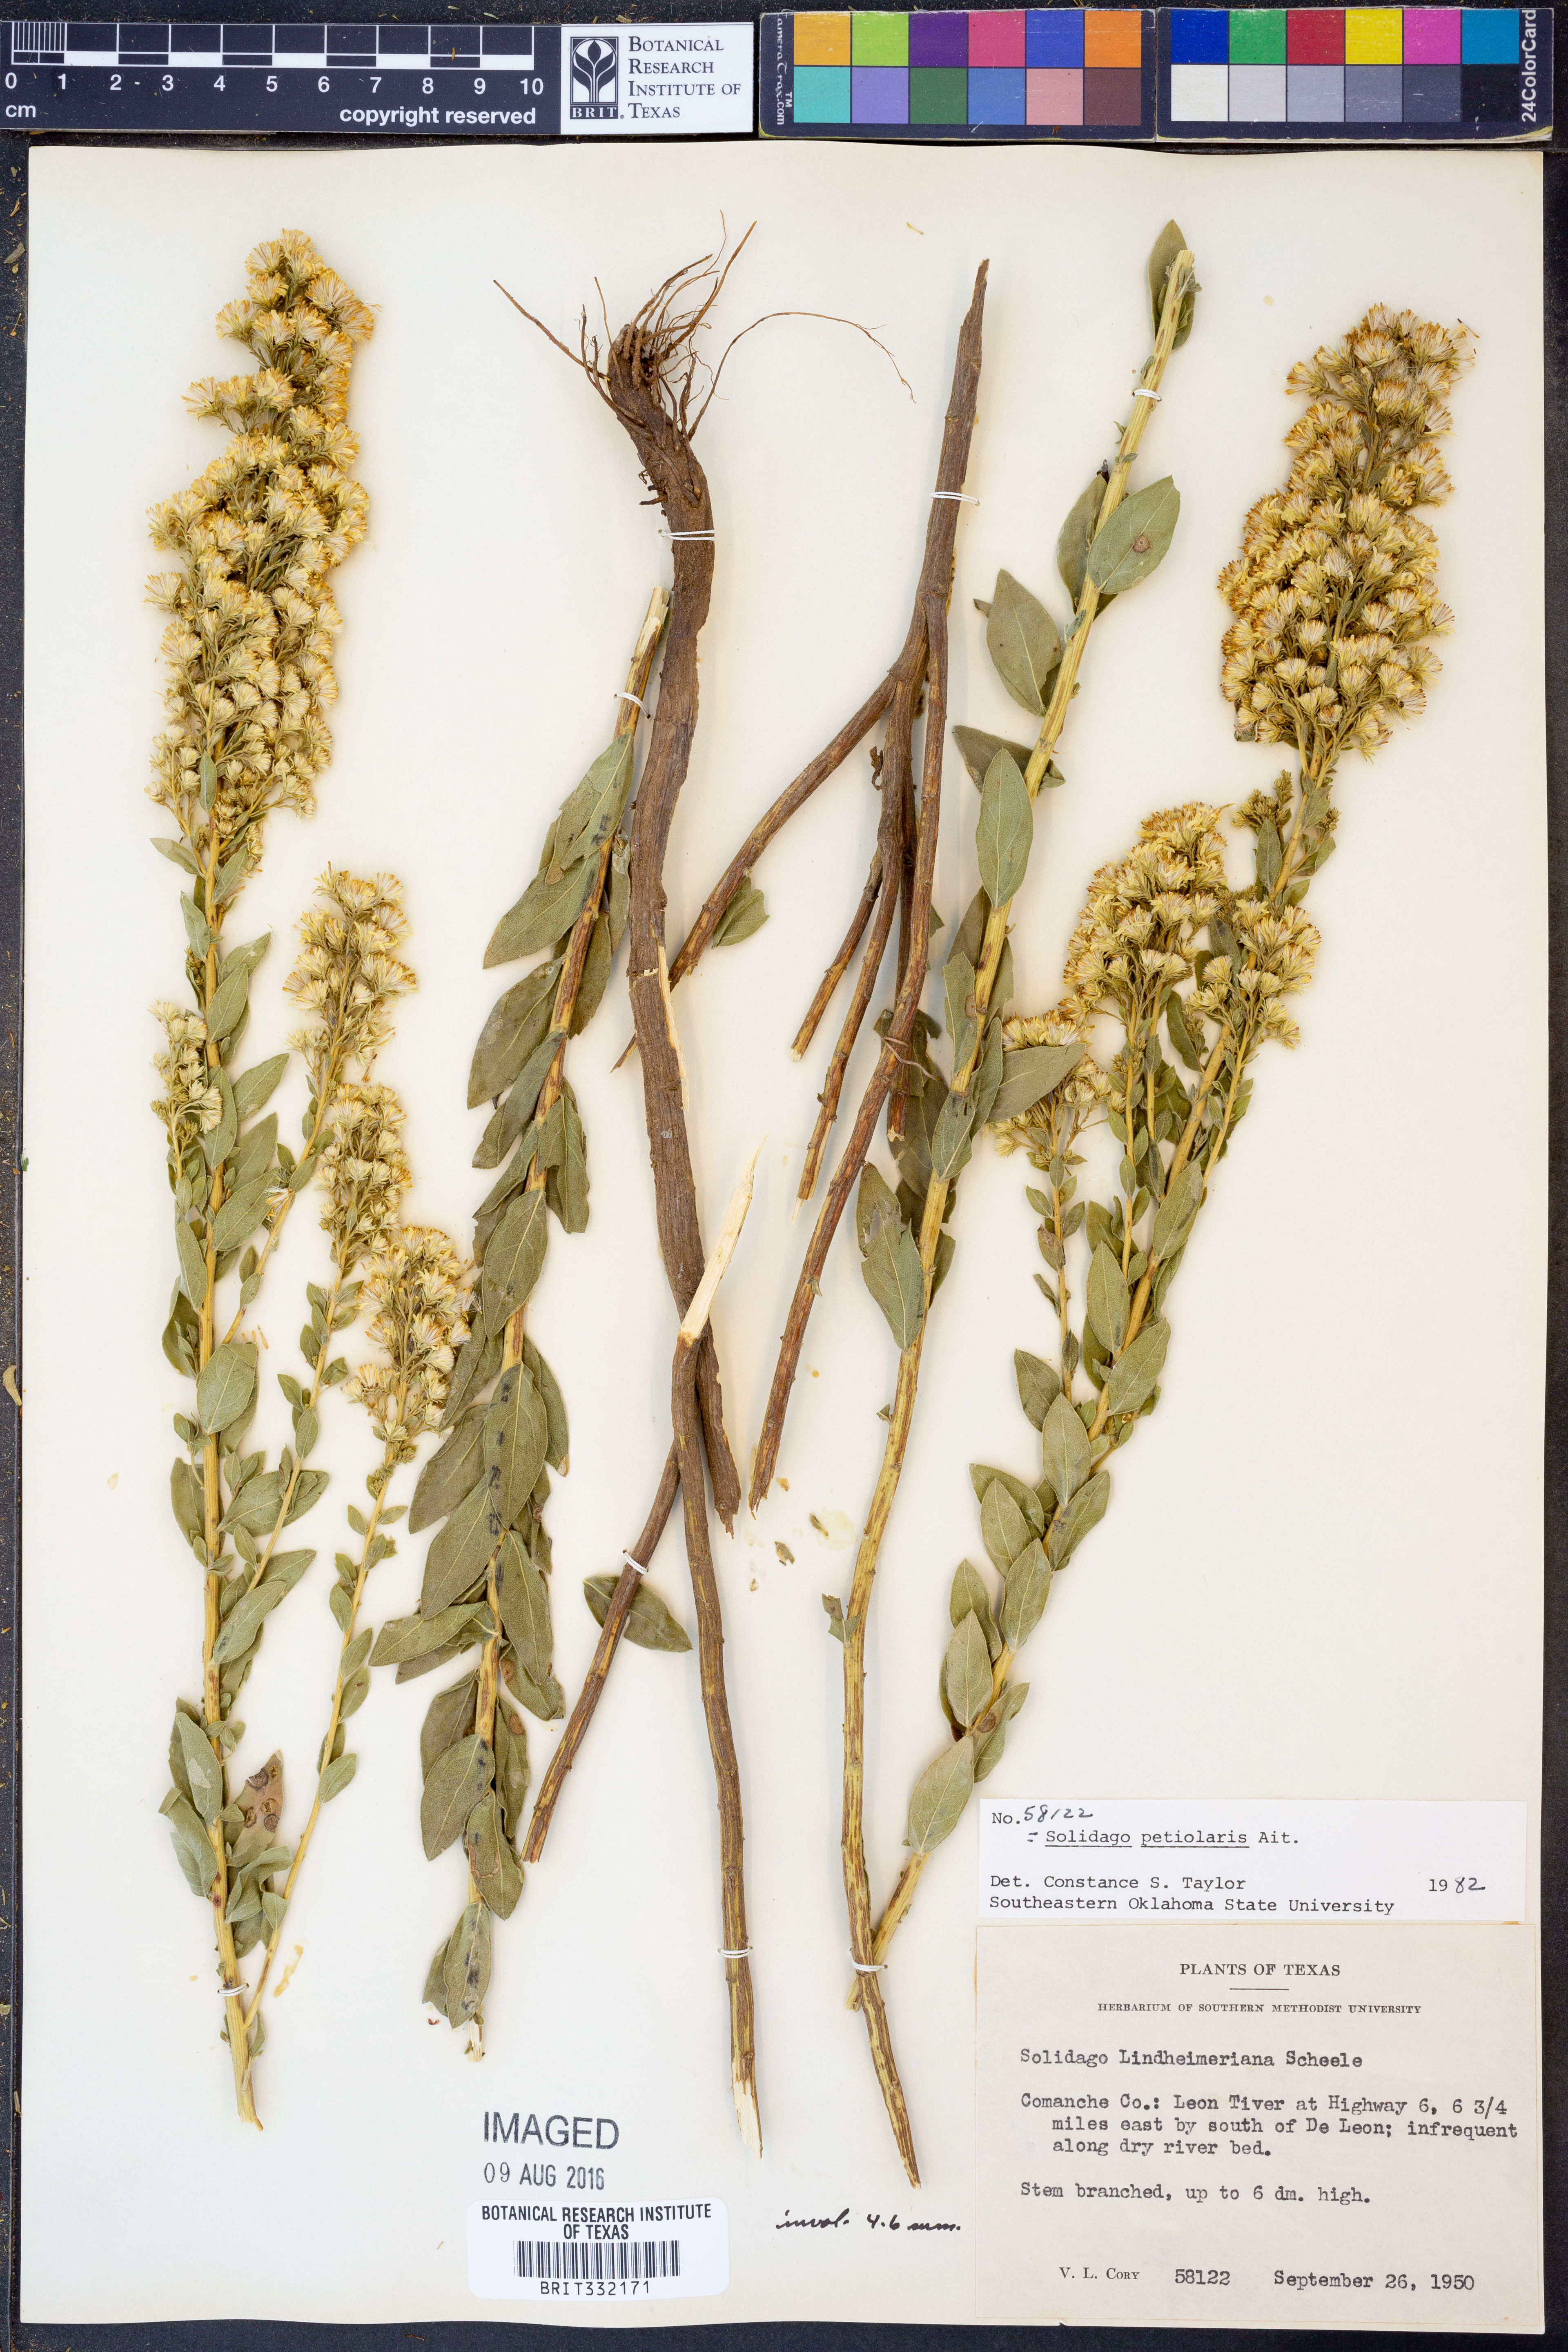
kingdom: Plantae
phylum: Tracheophyta
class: Magnoliopsida
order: Asterales
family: Asteraceae
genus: Solidago
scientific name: Solidago petiolaris
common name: Downy ragged goldenrod
